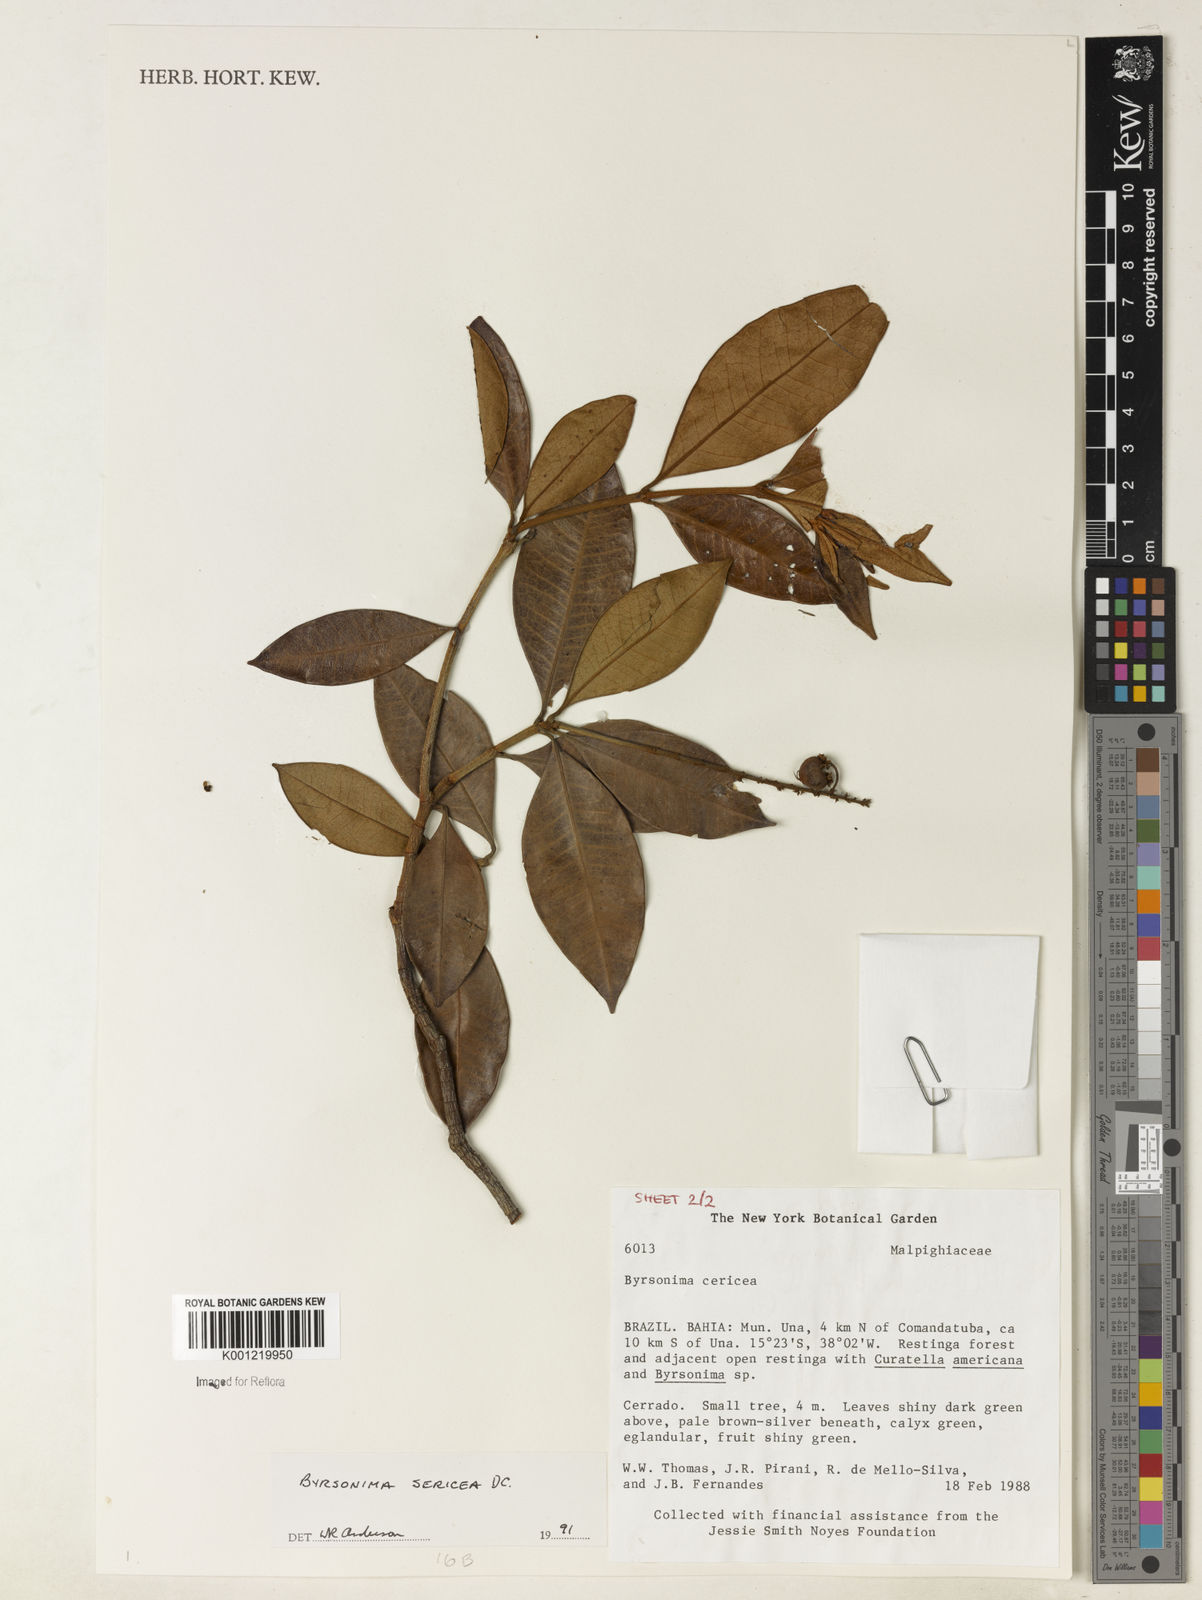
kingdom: Plantae
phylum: Tracheophyta
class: Magnoliopsida
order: Malpighiales
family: Malpighiaceae
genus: Byrsonima
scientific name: Byrsonima sericea
